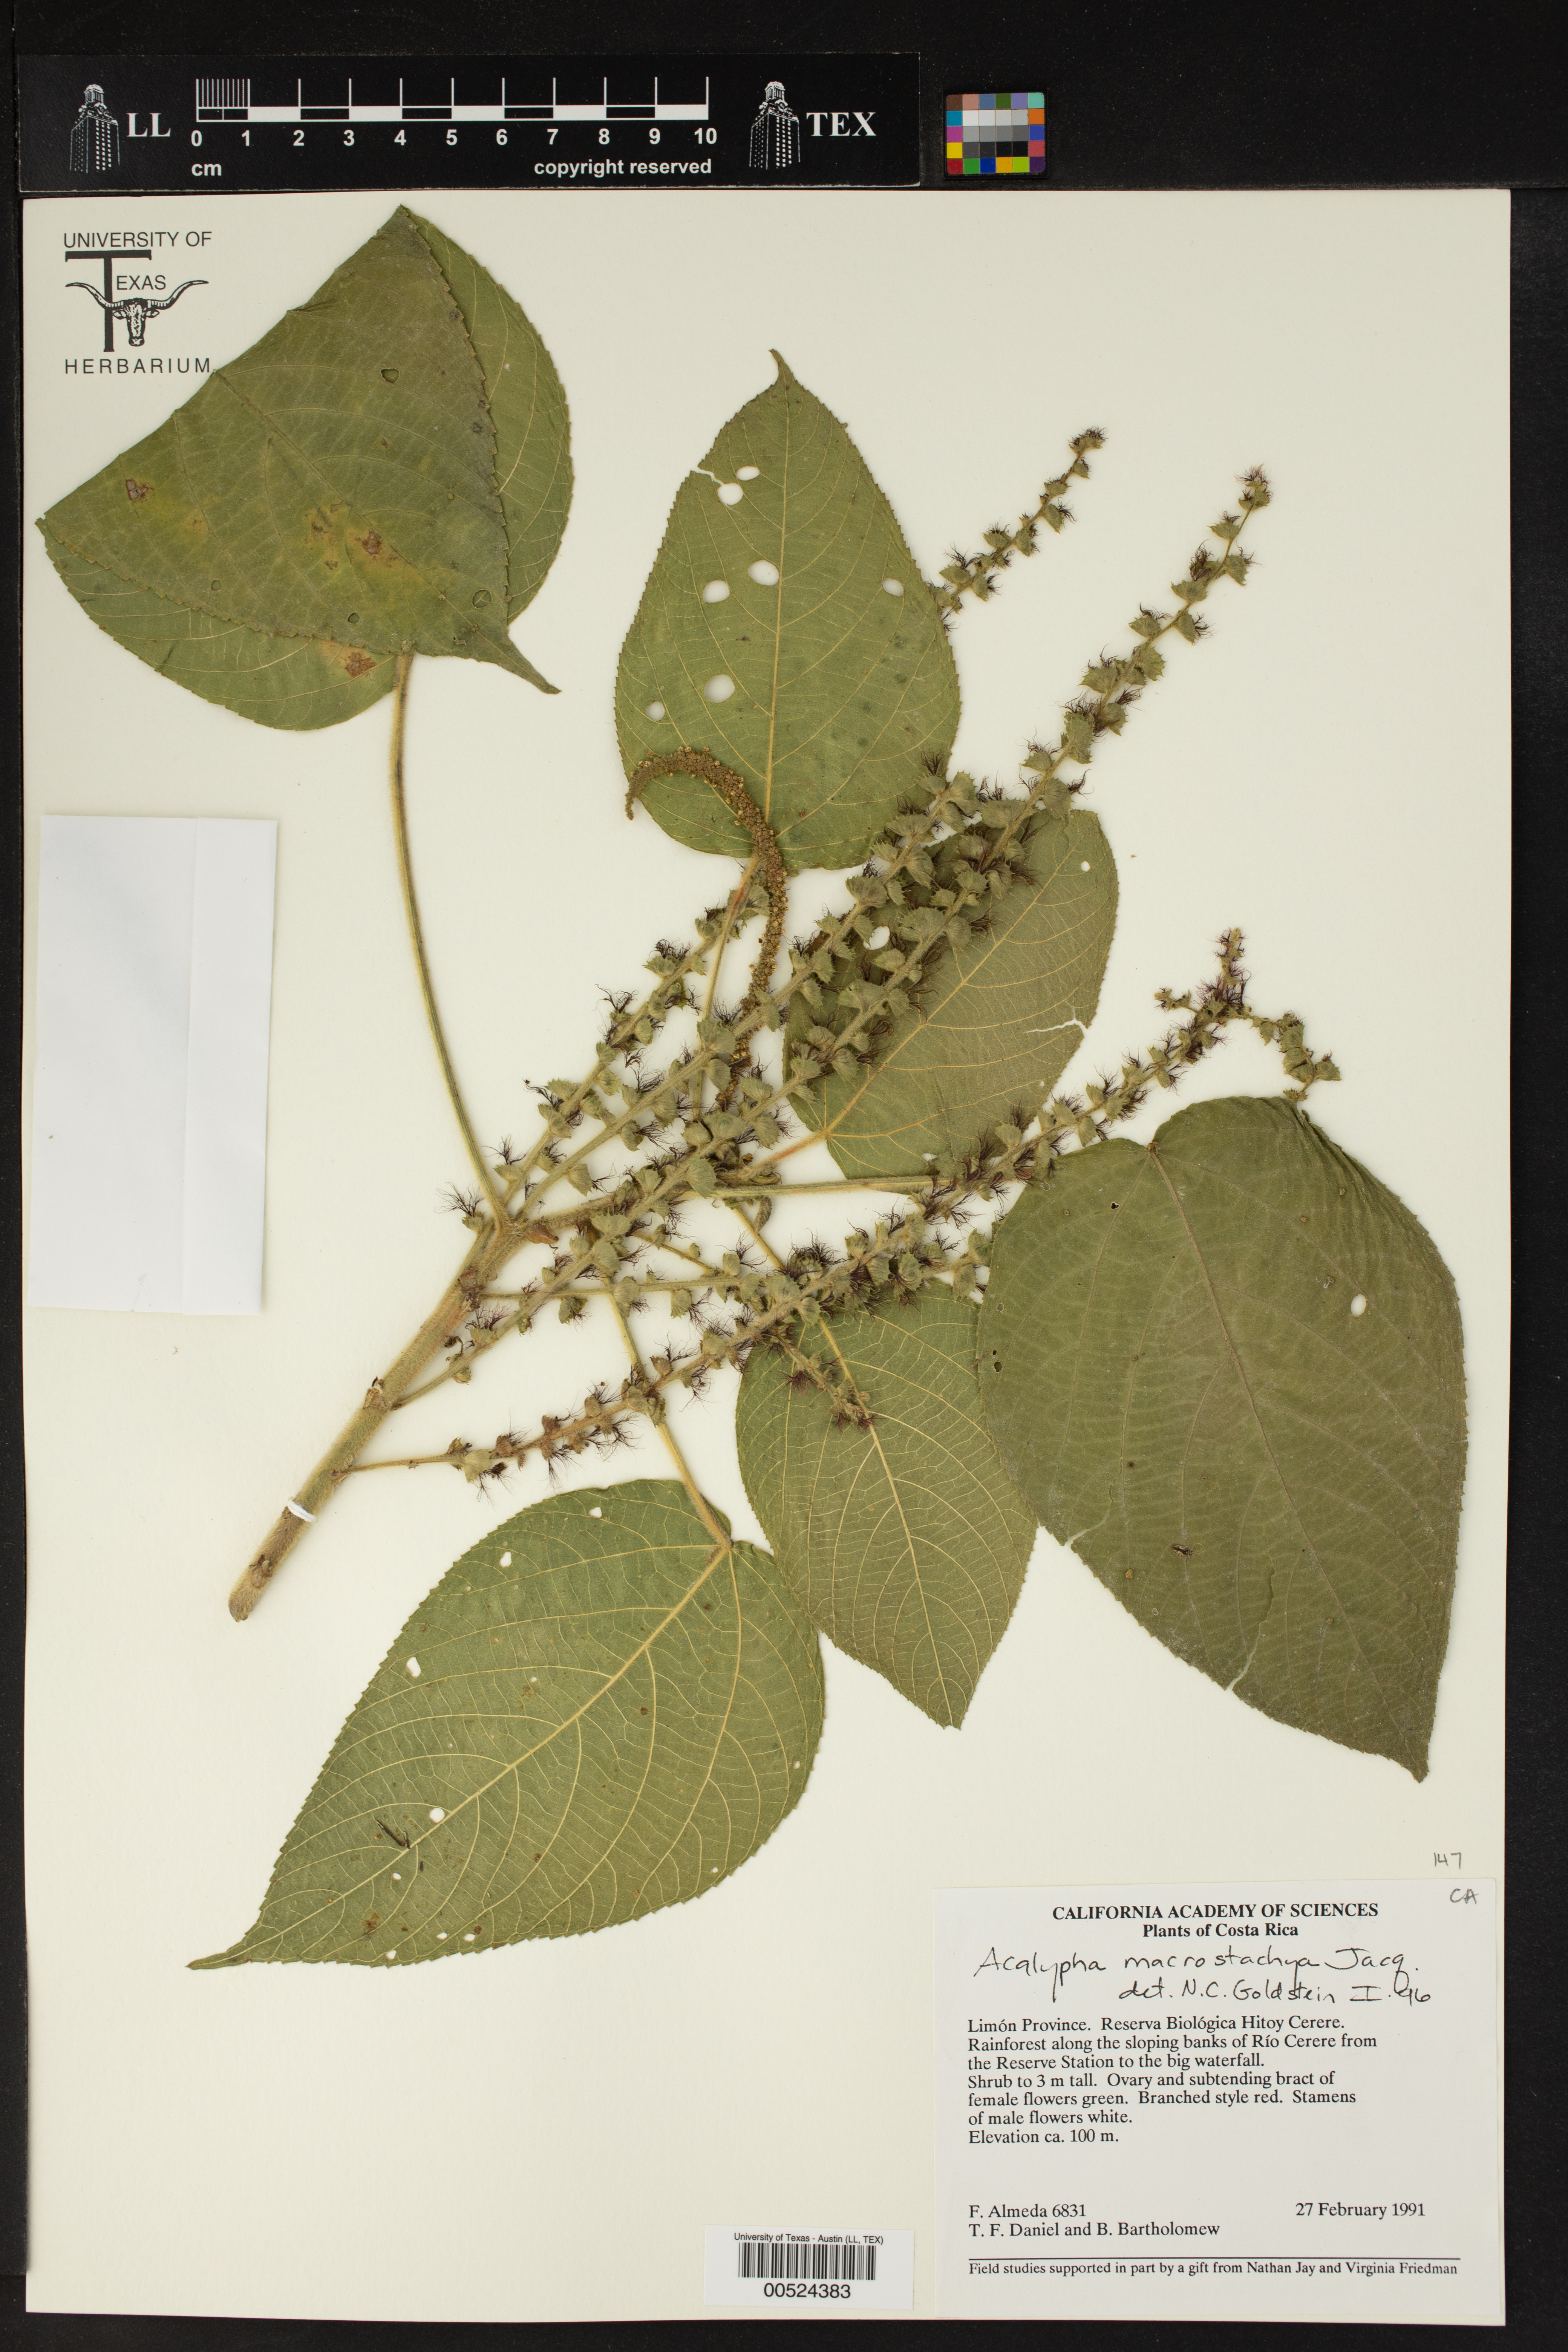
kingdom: Plantae
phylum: Tracheophyta
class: Magnoliopsida
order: Malpighiales
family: Euphorbiaceae
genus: Acalypha
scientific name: Acalypha macrostachya
